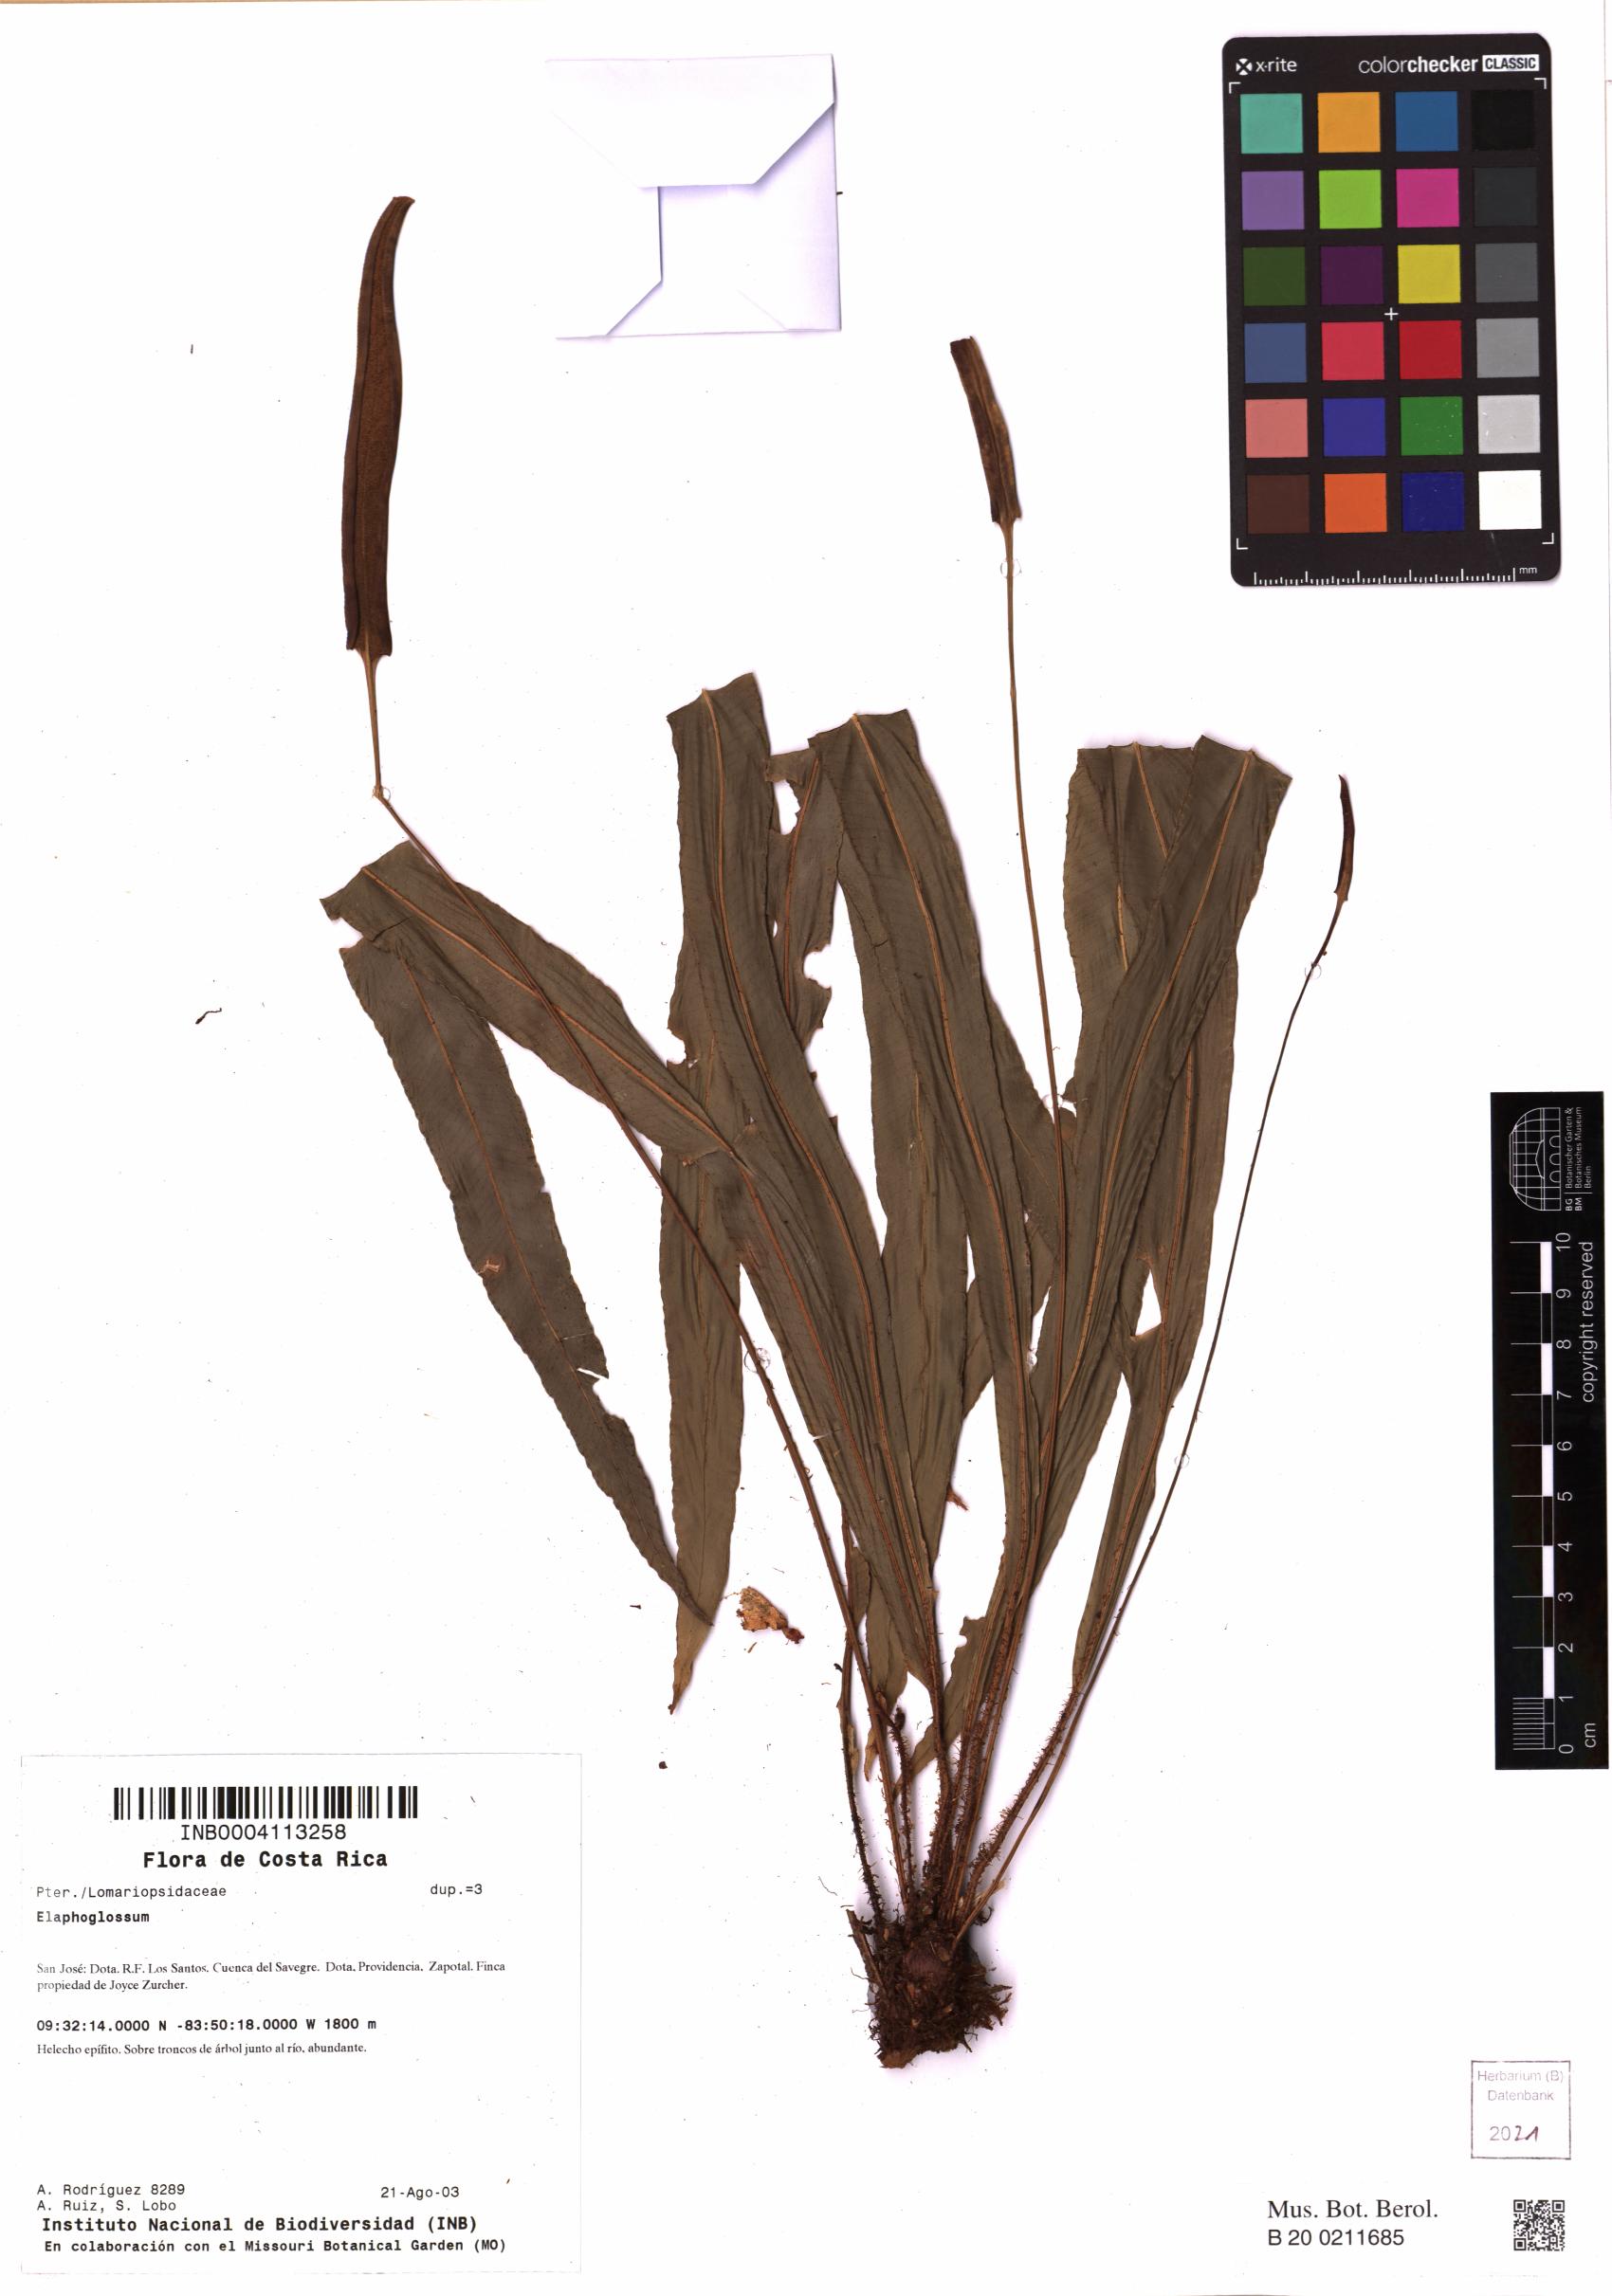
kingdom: Plantae
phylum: Tracheophyta
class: Polypodiopsida
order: Polypodiales
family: Dryopteridaceae
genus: Elaphoglossum
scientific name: Elaphoglossum
